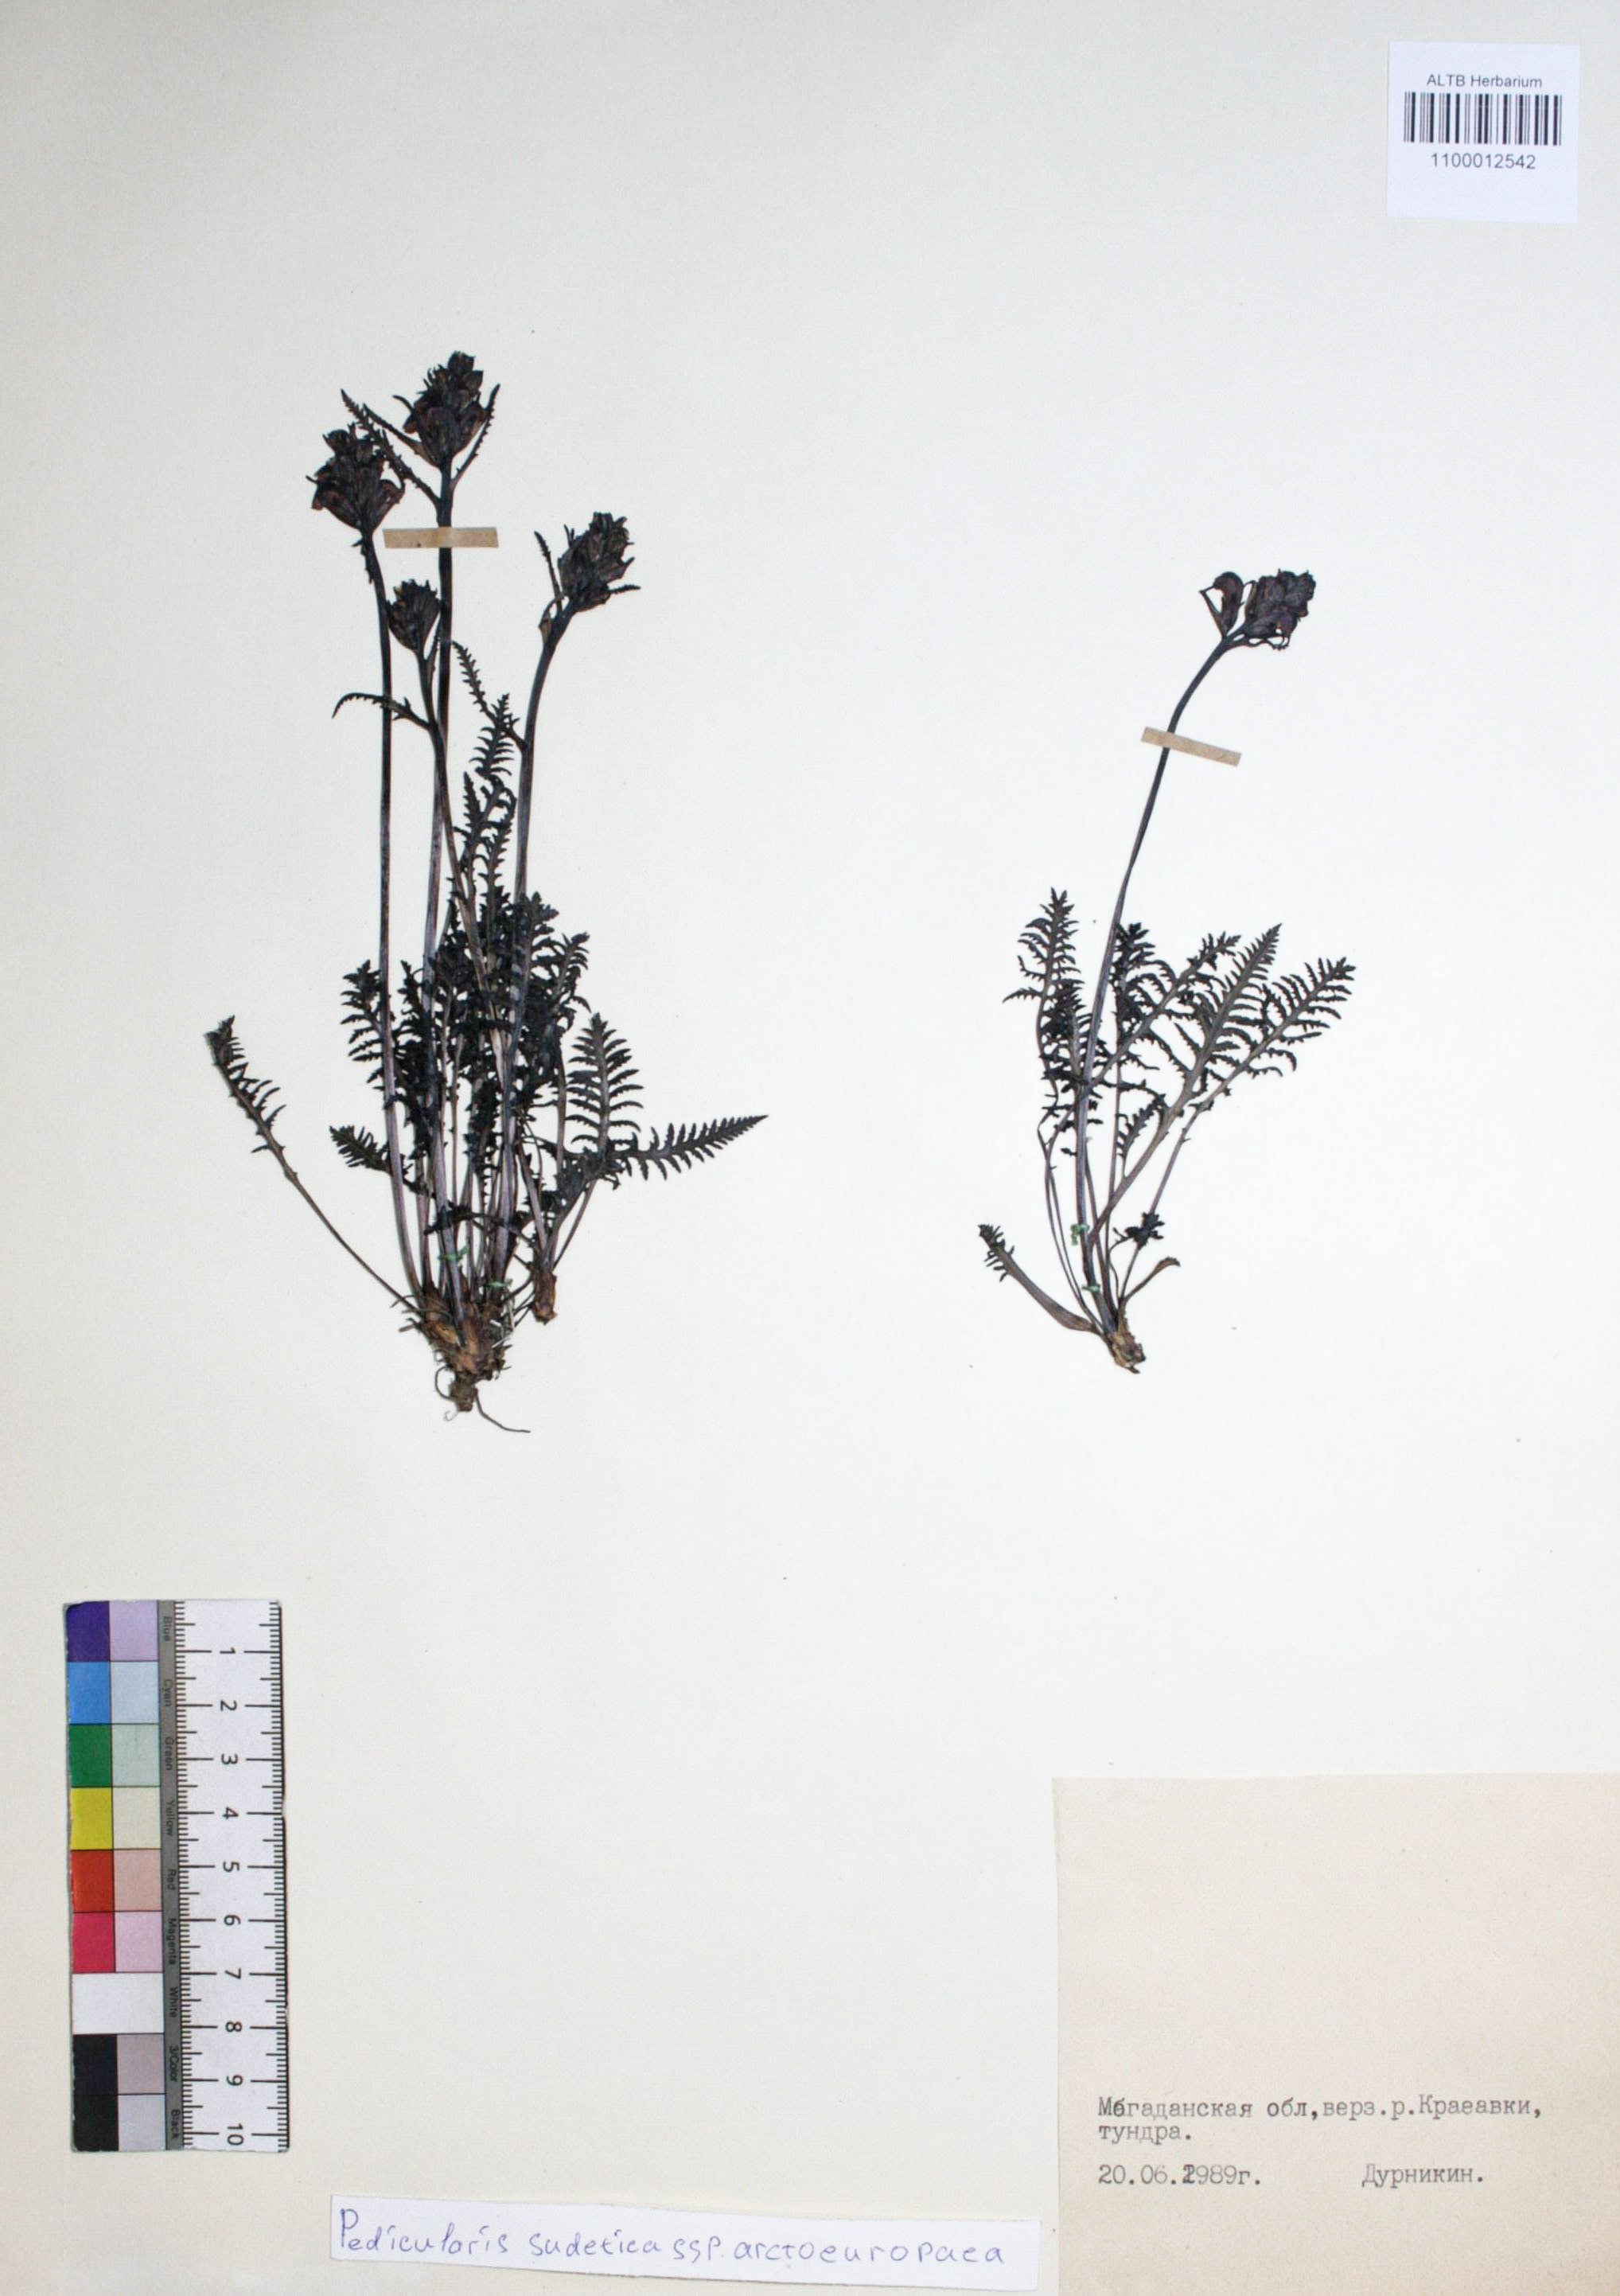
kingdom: Plantae
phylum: Tracheophyta
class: Magnoliopsida
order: Lamiales
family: Orobanchaceae
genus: Pedicularis
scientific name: Pedicularis arctoeuropaea
